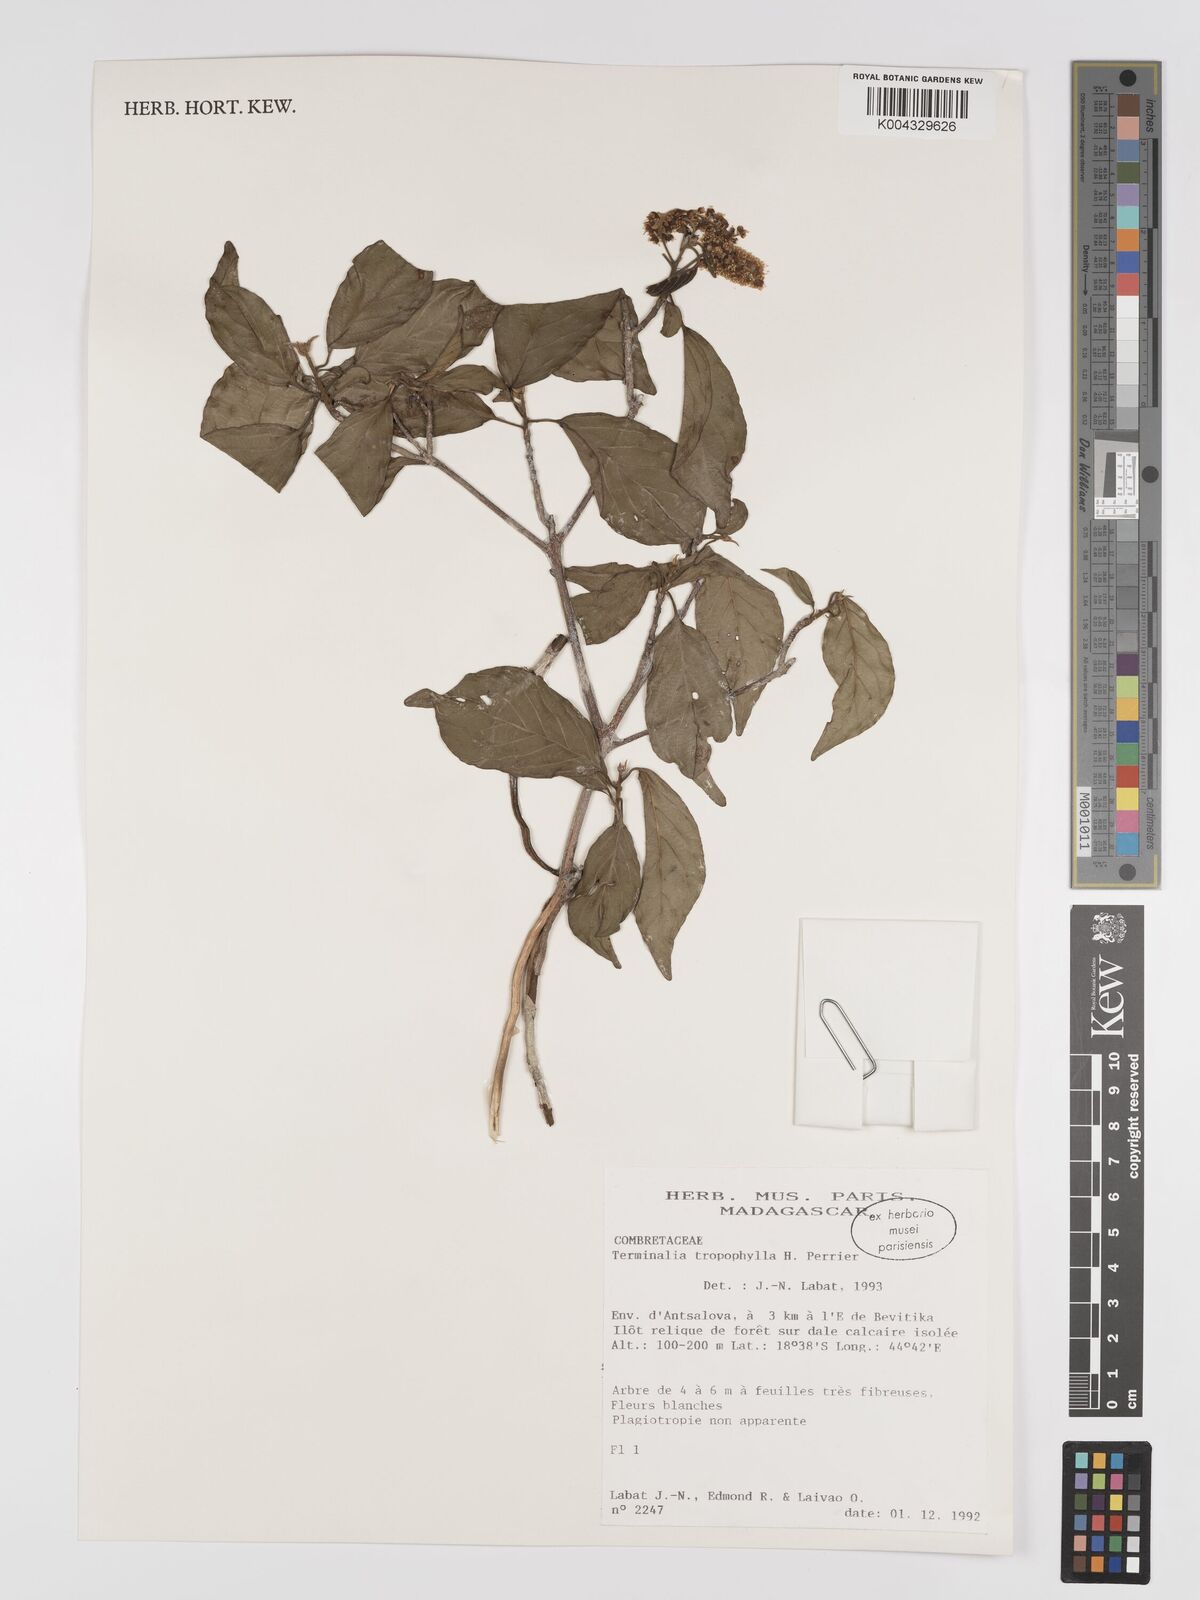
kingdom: Plantae
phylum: Tracheophyta
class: Magnoliopsida
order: Myrtales
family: Combretaceae
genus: Terminalia
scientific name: Terminalia tropophylla
